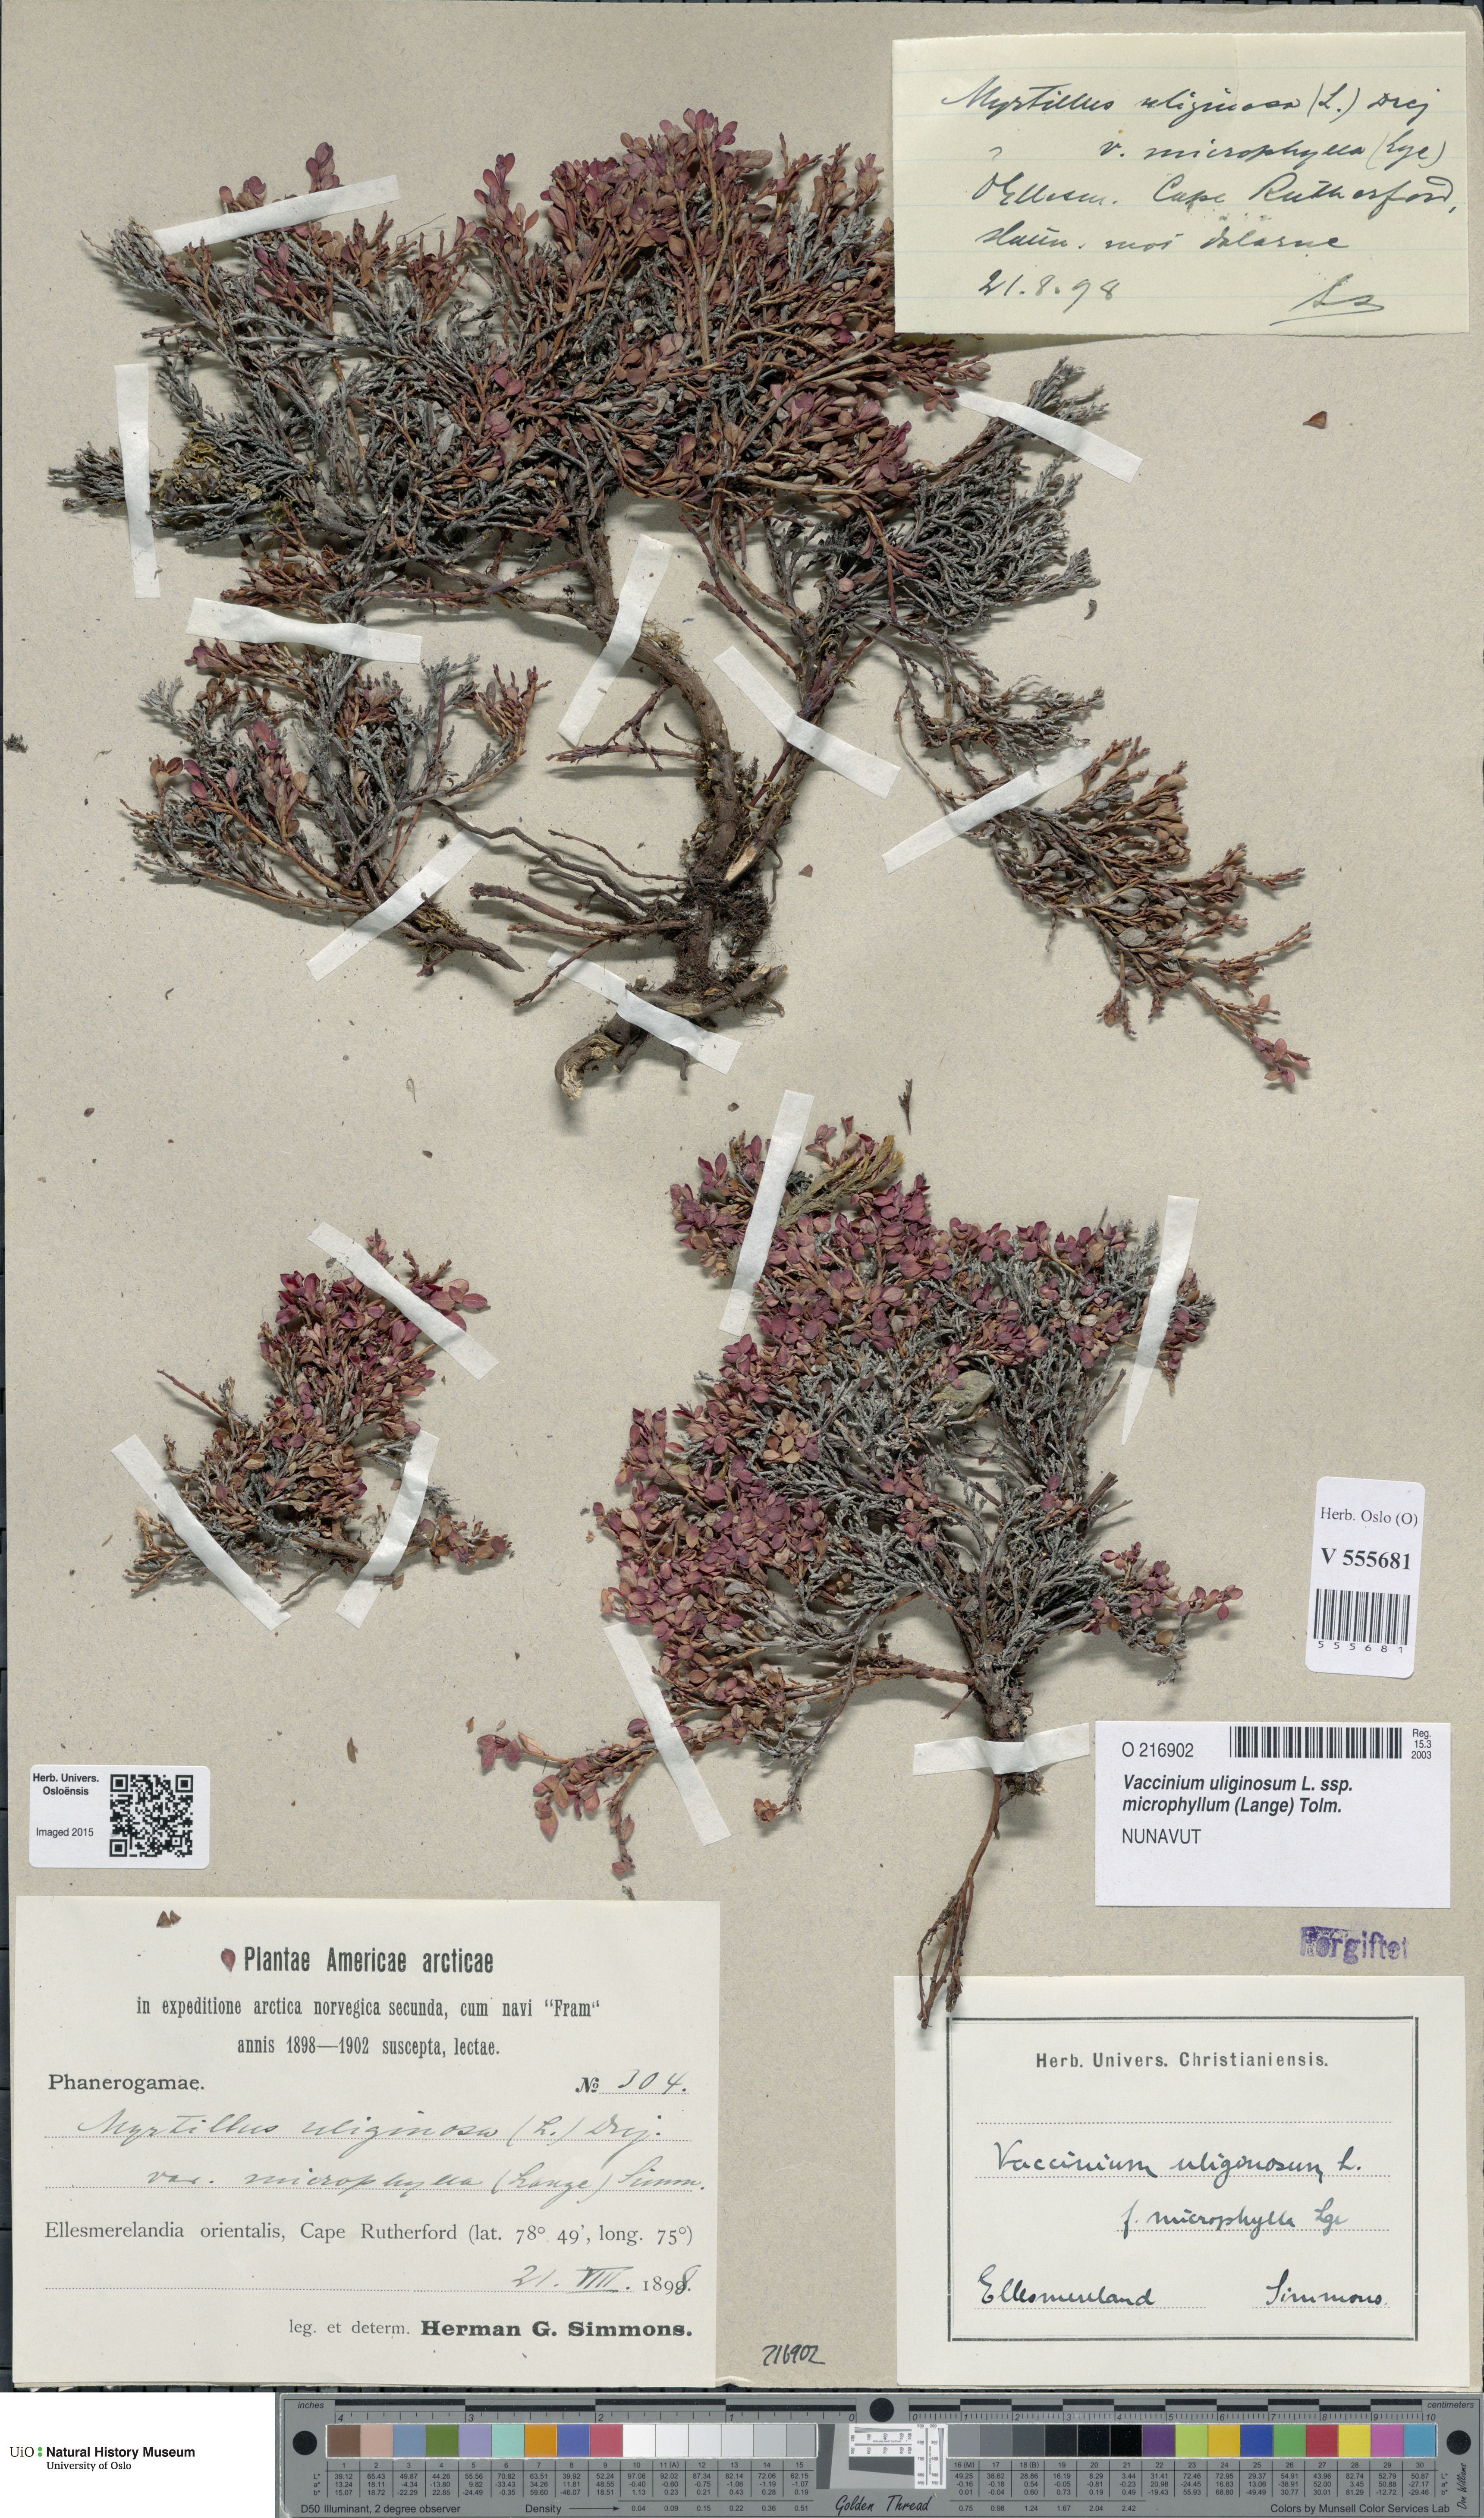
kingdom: Plantae
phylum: Tracheophyta
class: Magnoliopsida
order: Ericales
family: Ericaceae
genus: Vaccinium
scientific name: Vaccinium gaultherioides
